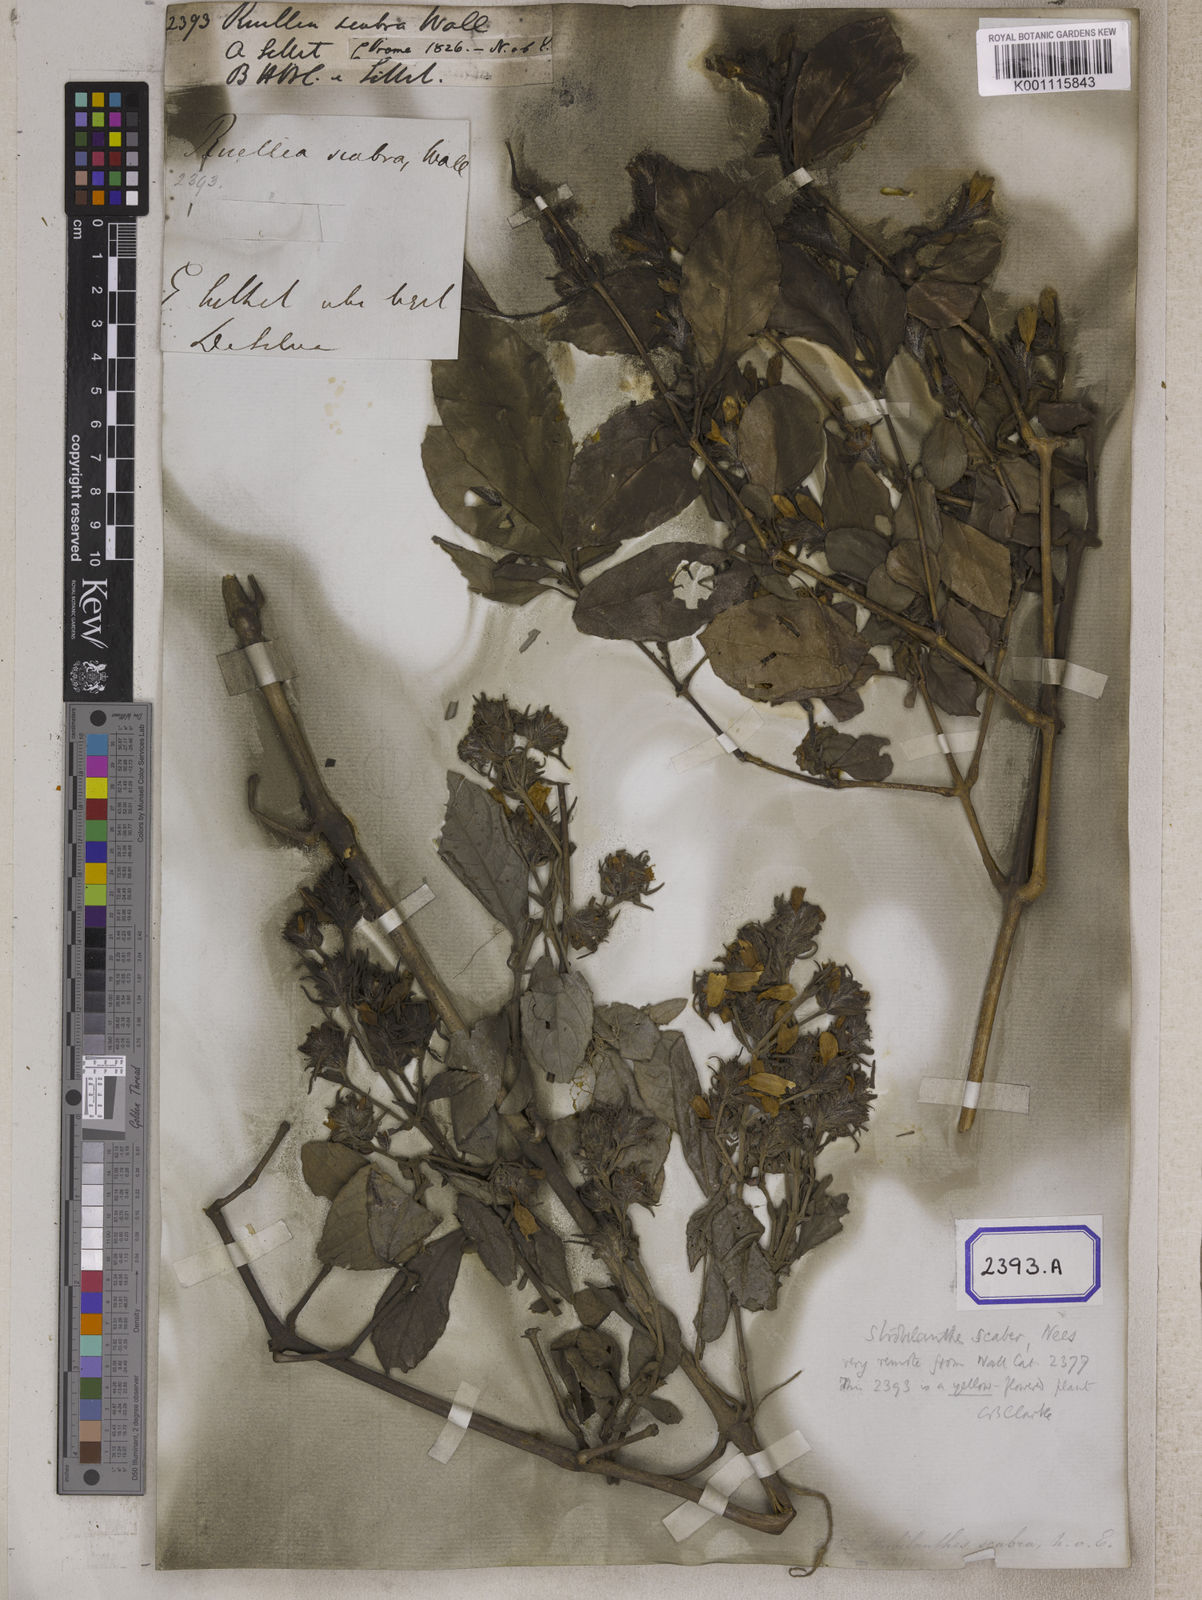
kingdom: Plantae
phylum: Tracheophyta
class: Magnoliopsida
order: Lamiales
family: Acanthaceae
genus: Ruellia
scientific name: Ruellia
